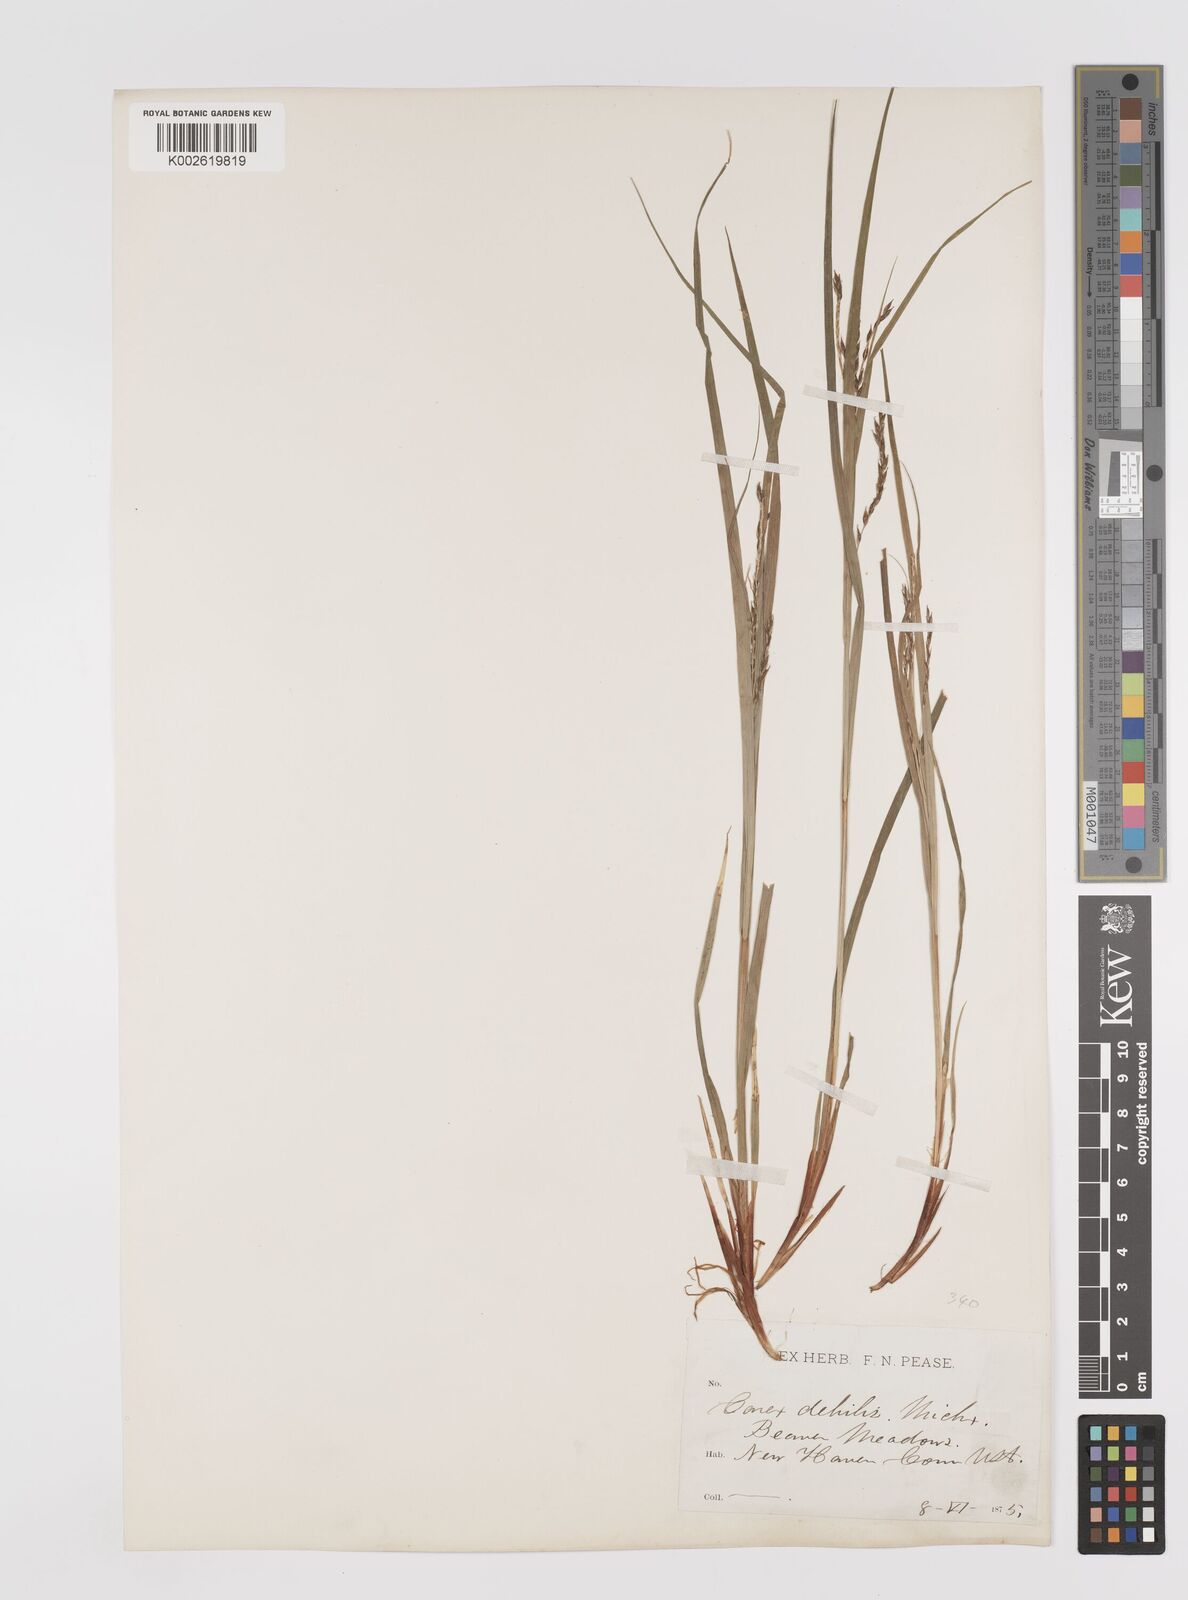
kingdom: Plantae
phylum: Tracheophyta
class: Liliopsida
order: Poales
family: Cyperaceae
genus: Carex
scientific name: Carex debilis
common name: White-edge sedge
